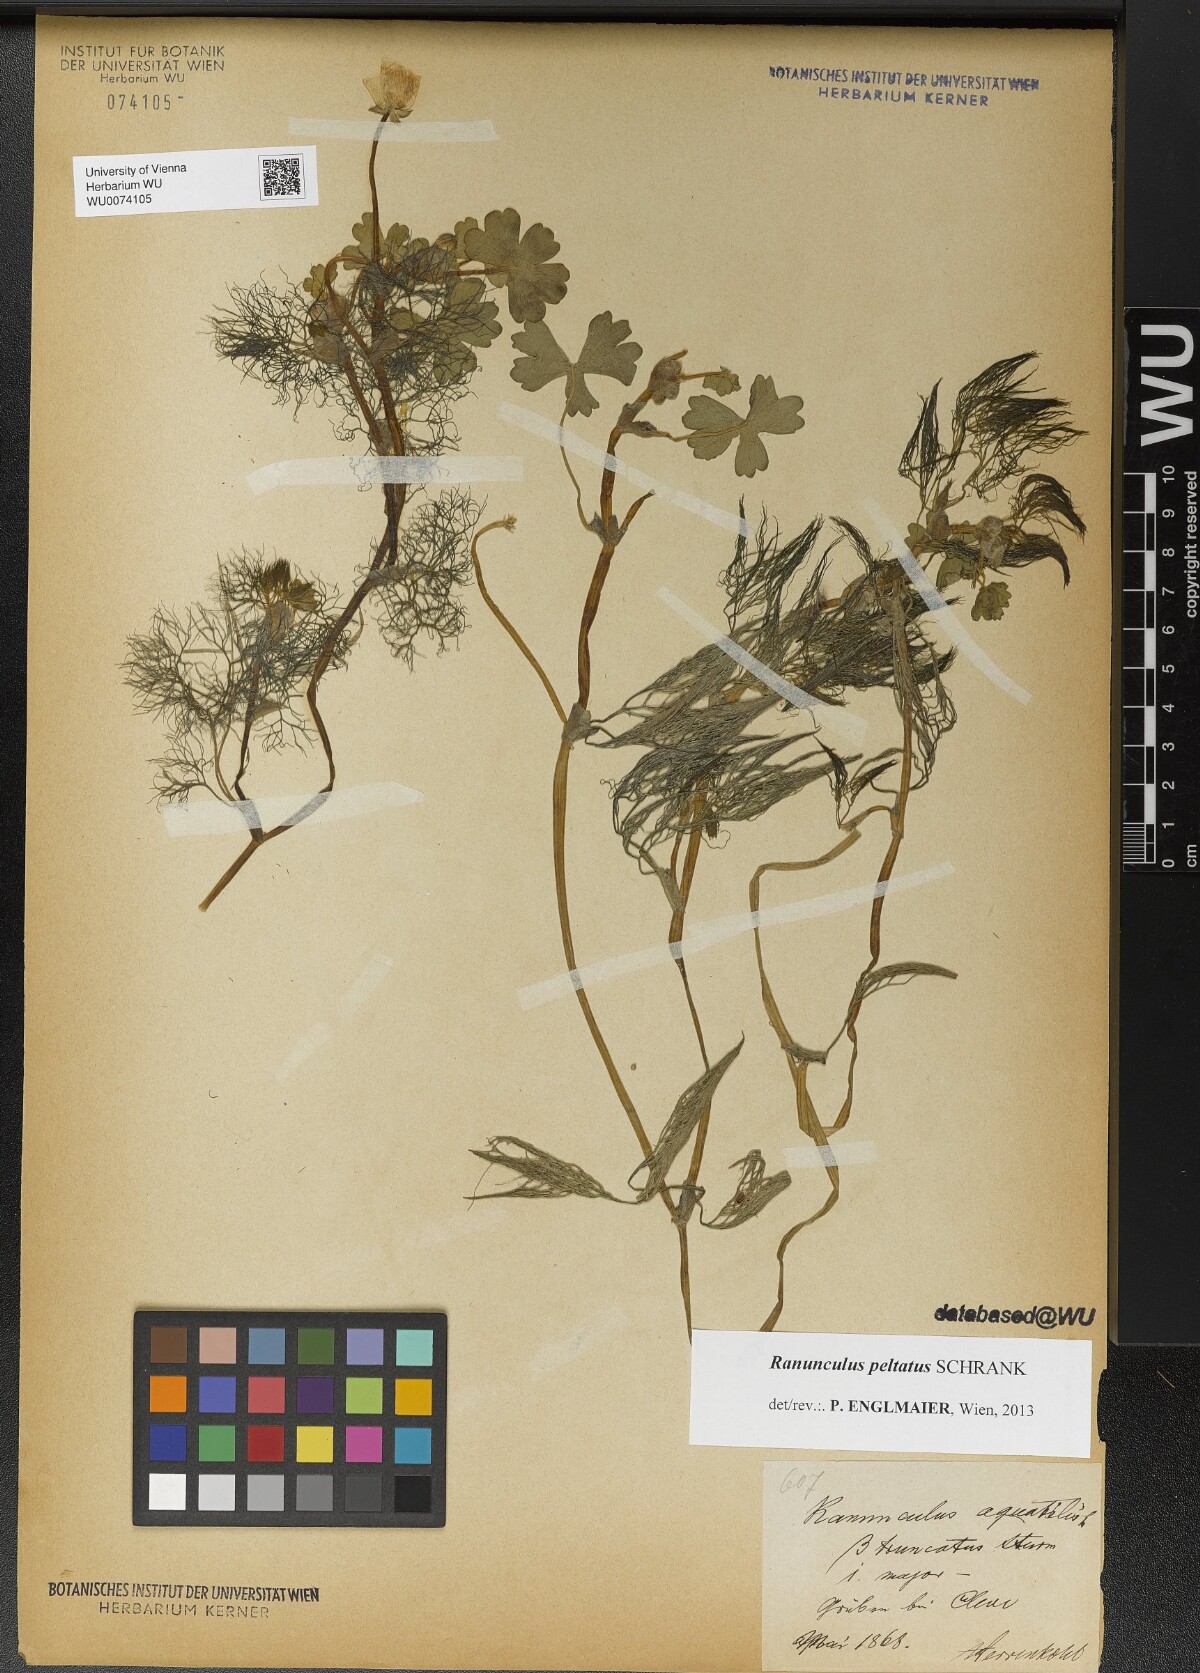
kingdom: Plantae
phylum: Tracheophyta
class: Magnoliopsida
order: Ranunculales
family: Ranunculaceae
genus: Ranunculus
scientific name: Ranunculus peltatus
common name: Pond water-crowfoot
